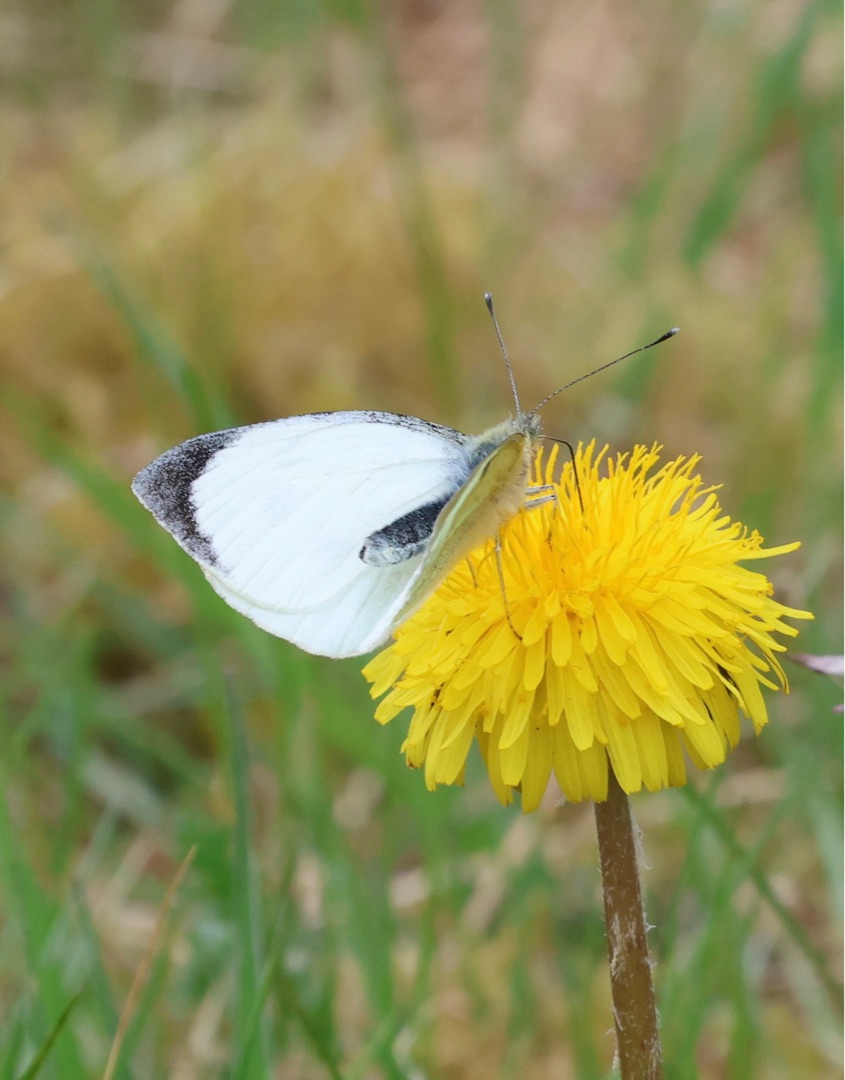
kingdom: Animalia
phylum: Arthropoda
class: Insecta
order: Lepidoptera
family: Pieridae
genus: Pieris
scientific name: Pieris brassicae
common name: Stor kålsommerfugl
